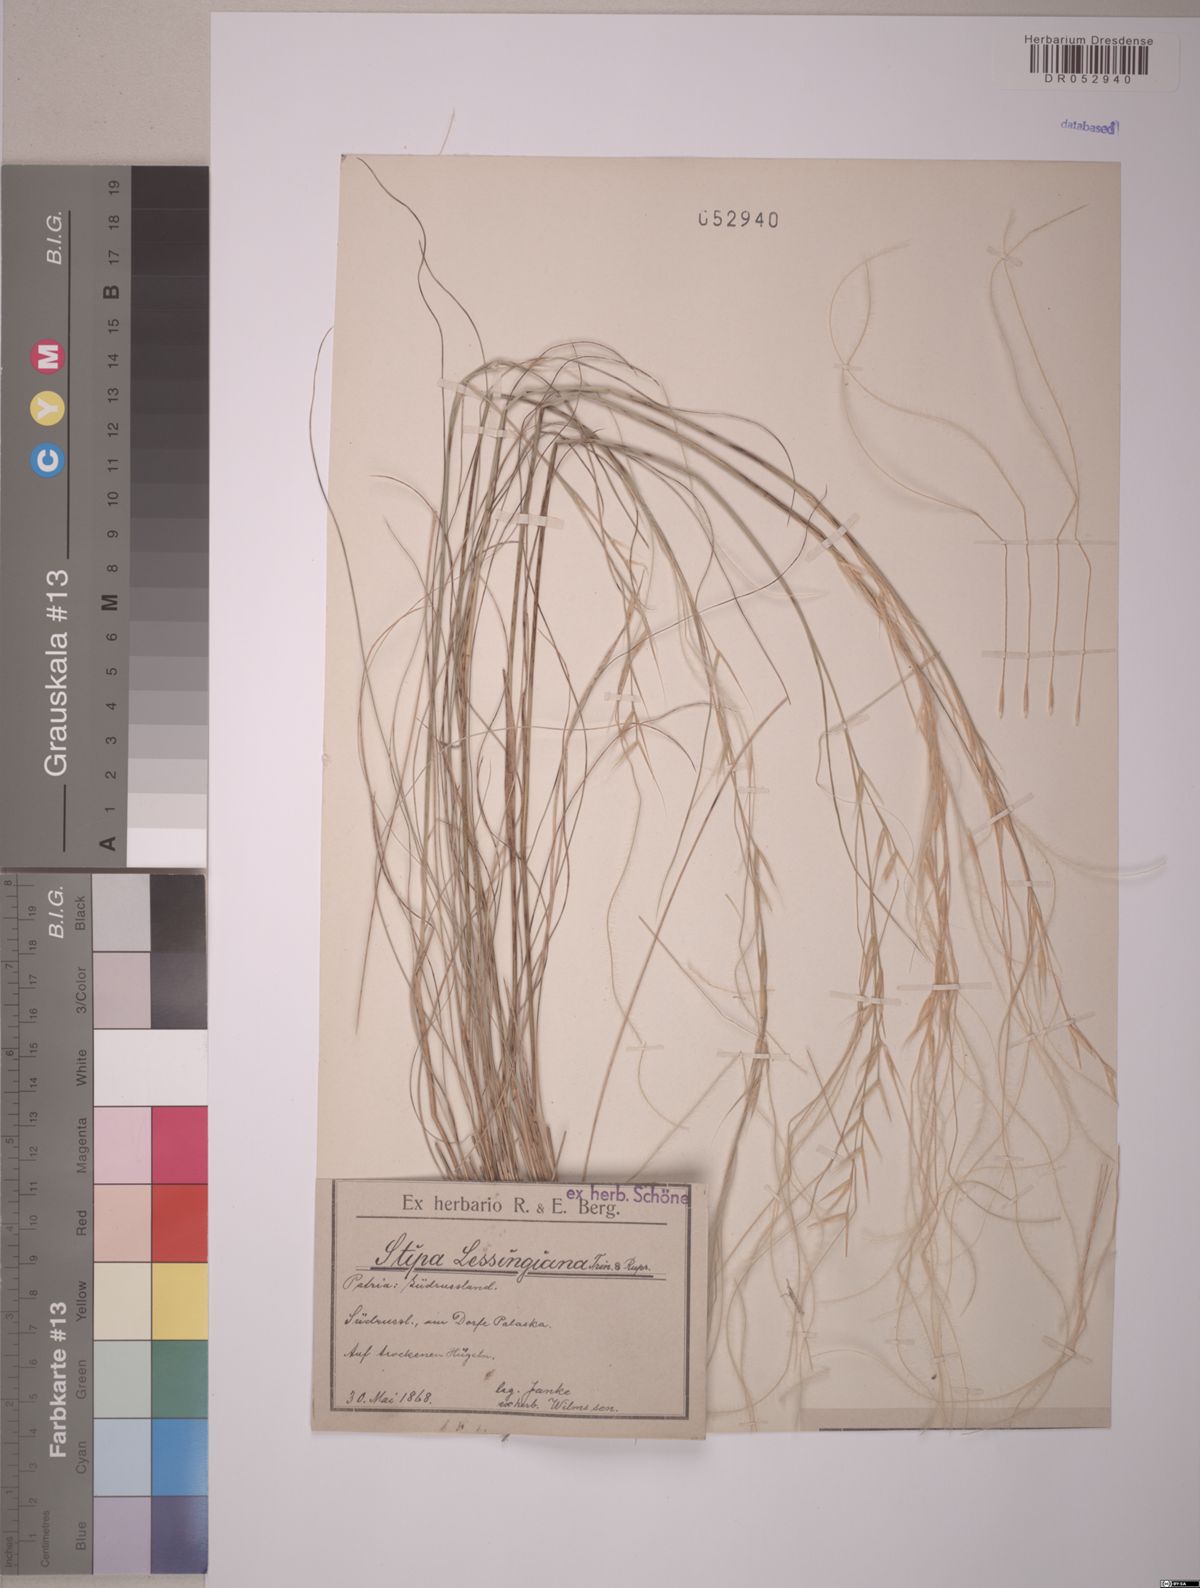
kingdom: Plantae
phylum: Tracheophyta
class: Liliopsida
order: Poales
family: Poaceae
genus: Stipa
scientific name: Stipa lessingiana
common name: Needle grass
